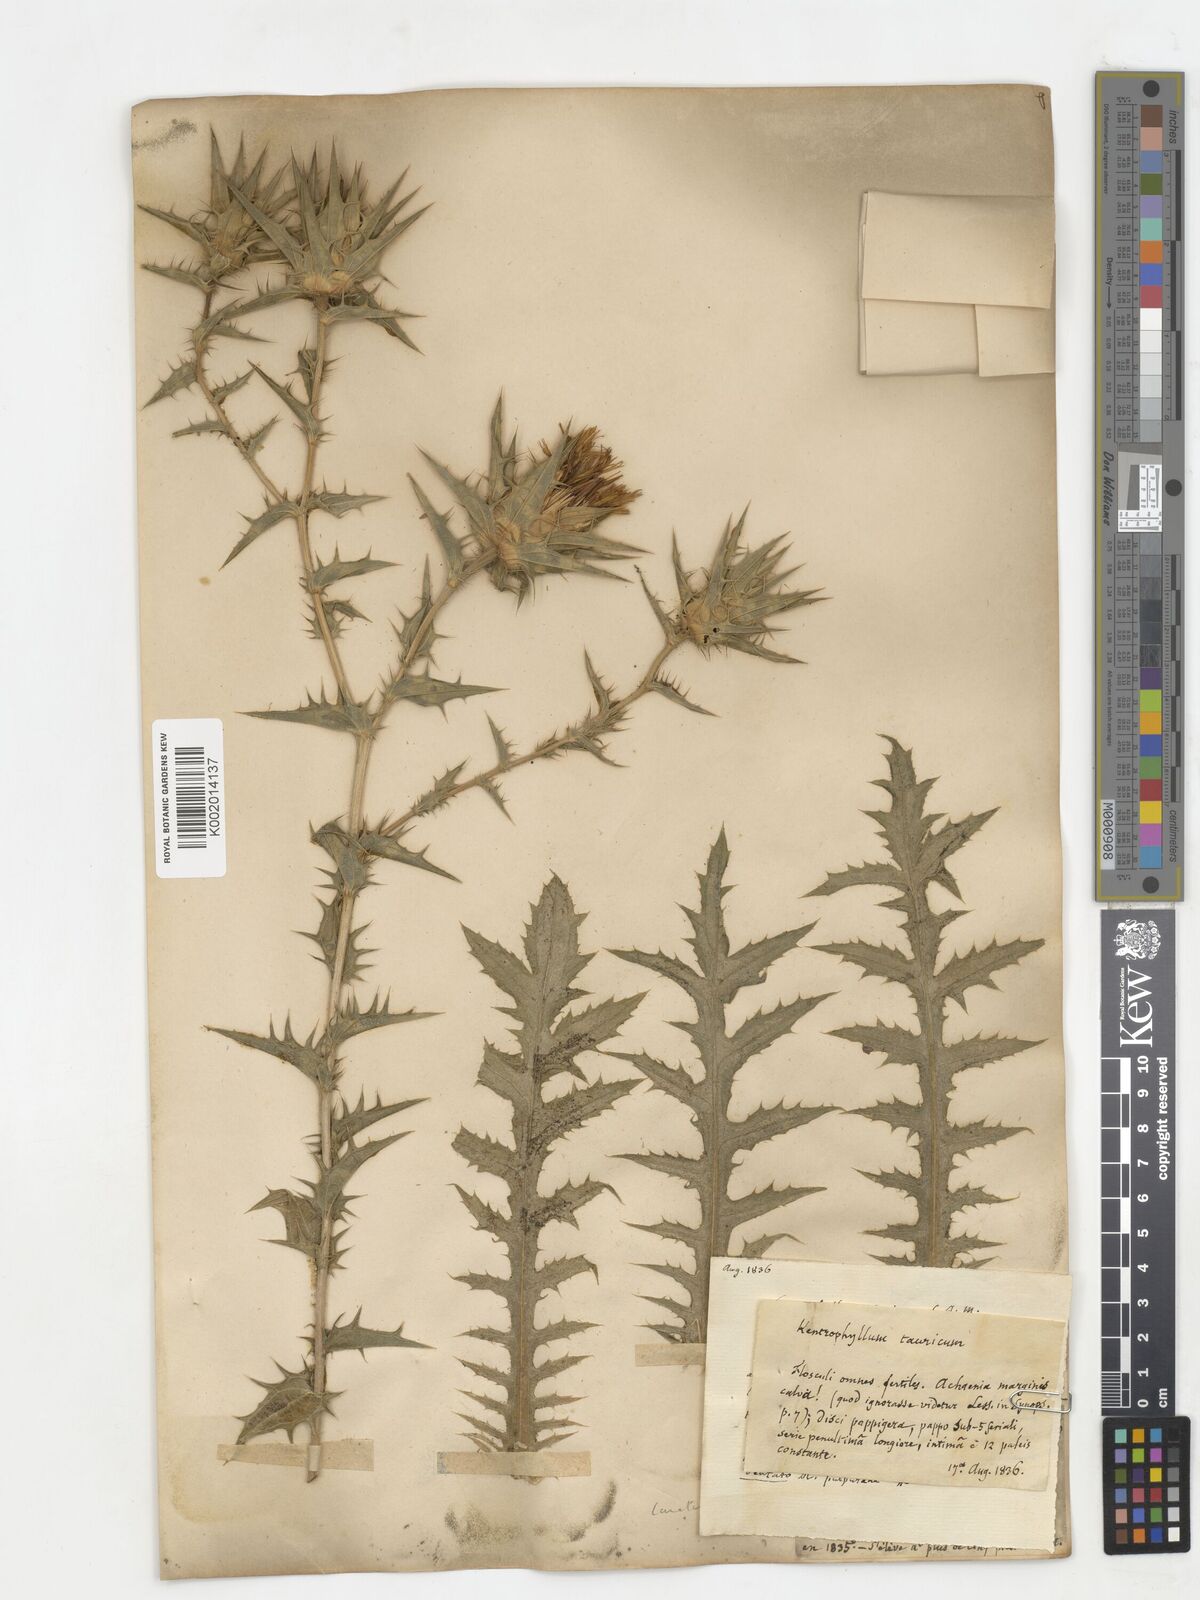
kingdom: Plantae
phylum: Tracheophyta
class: Magnoliopsida
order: Asterales
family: Asteraceae
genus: Carthamus
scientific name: Carthamus lanatus
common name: Downy safflower
